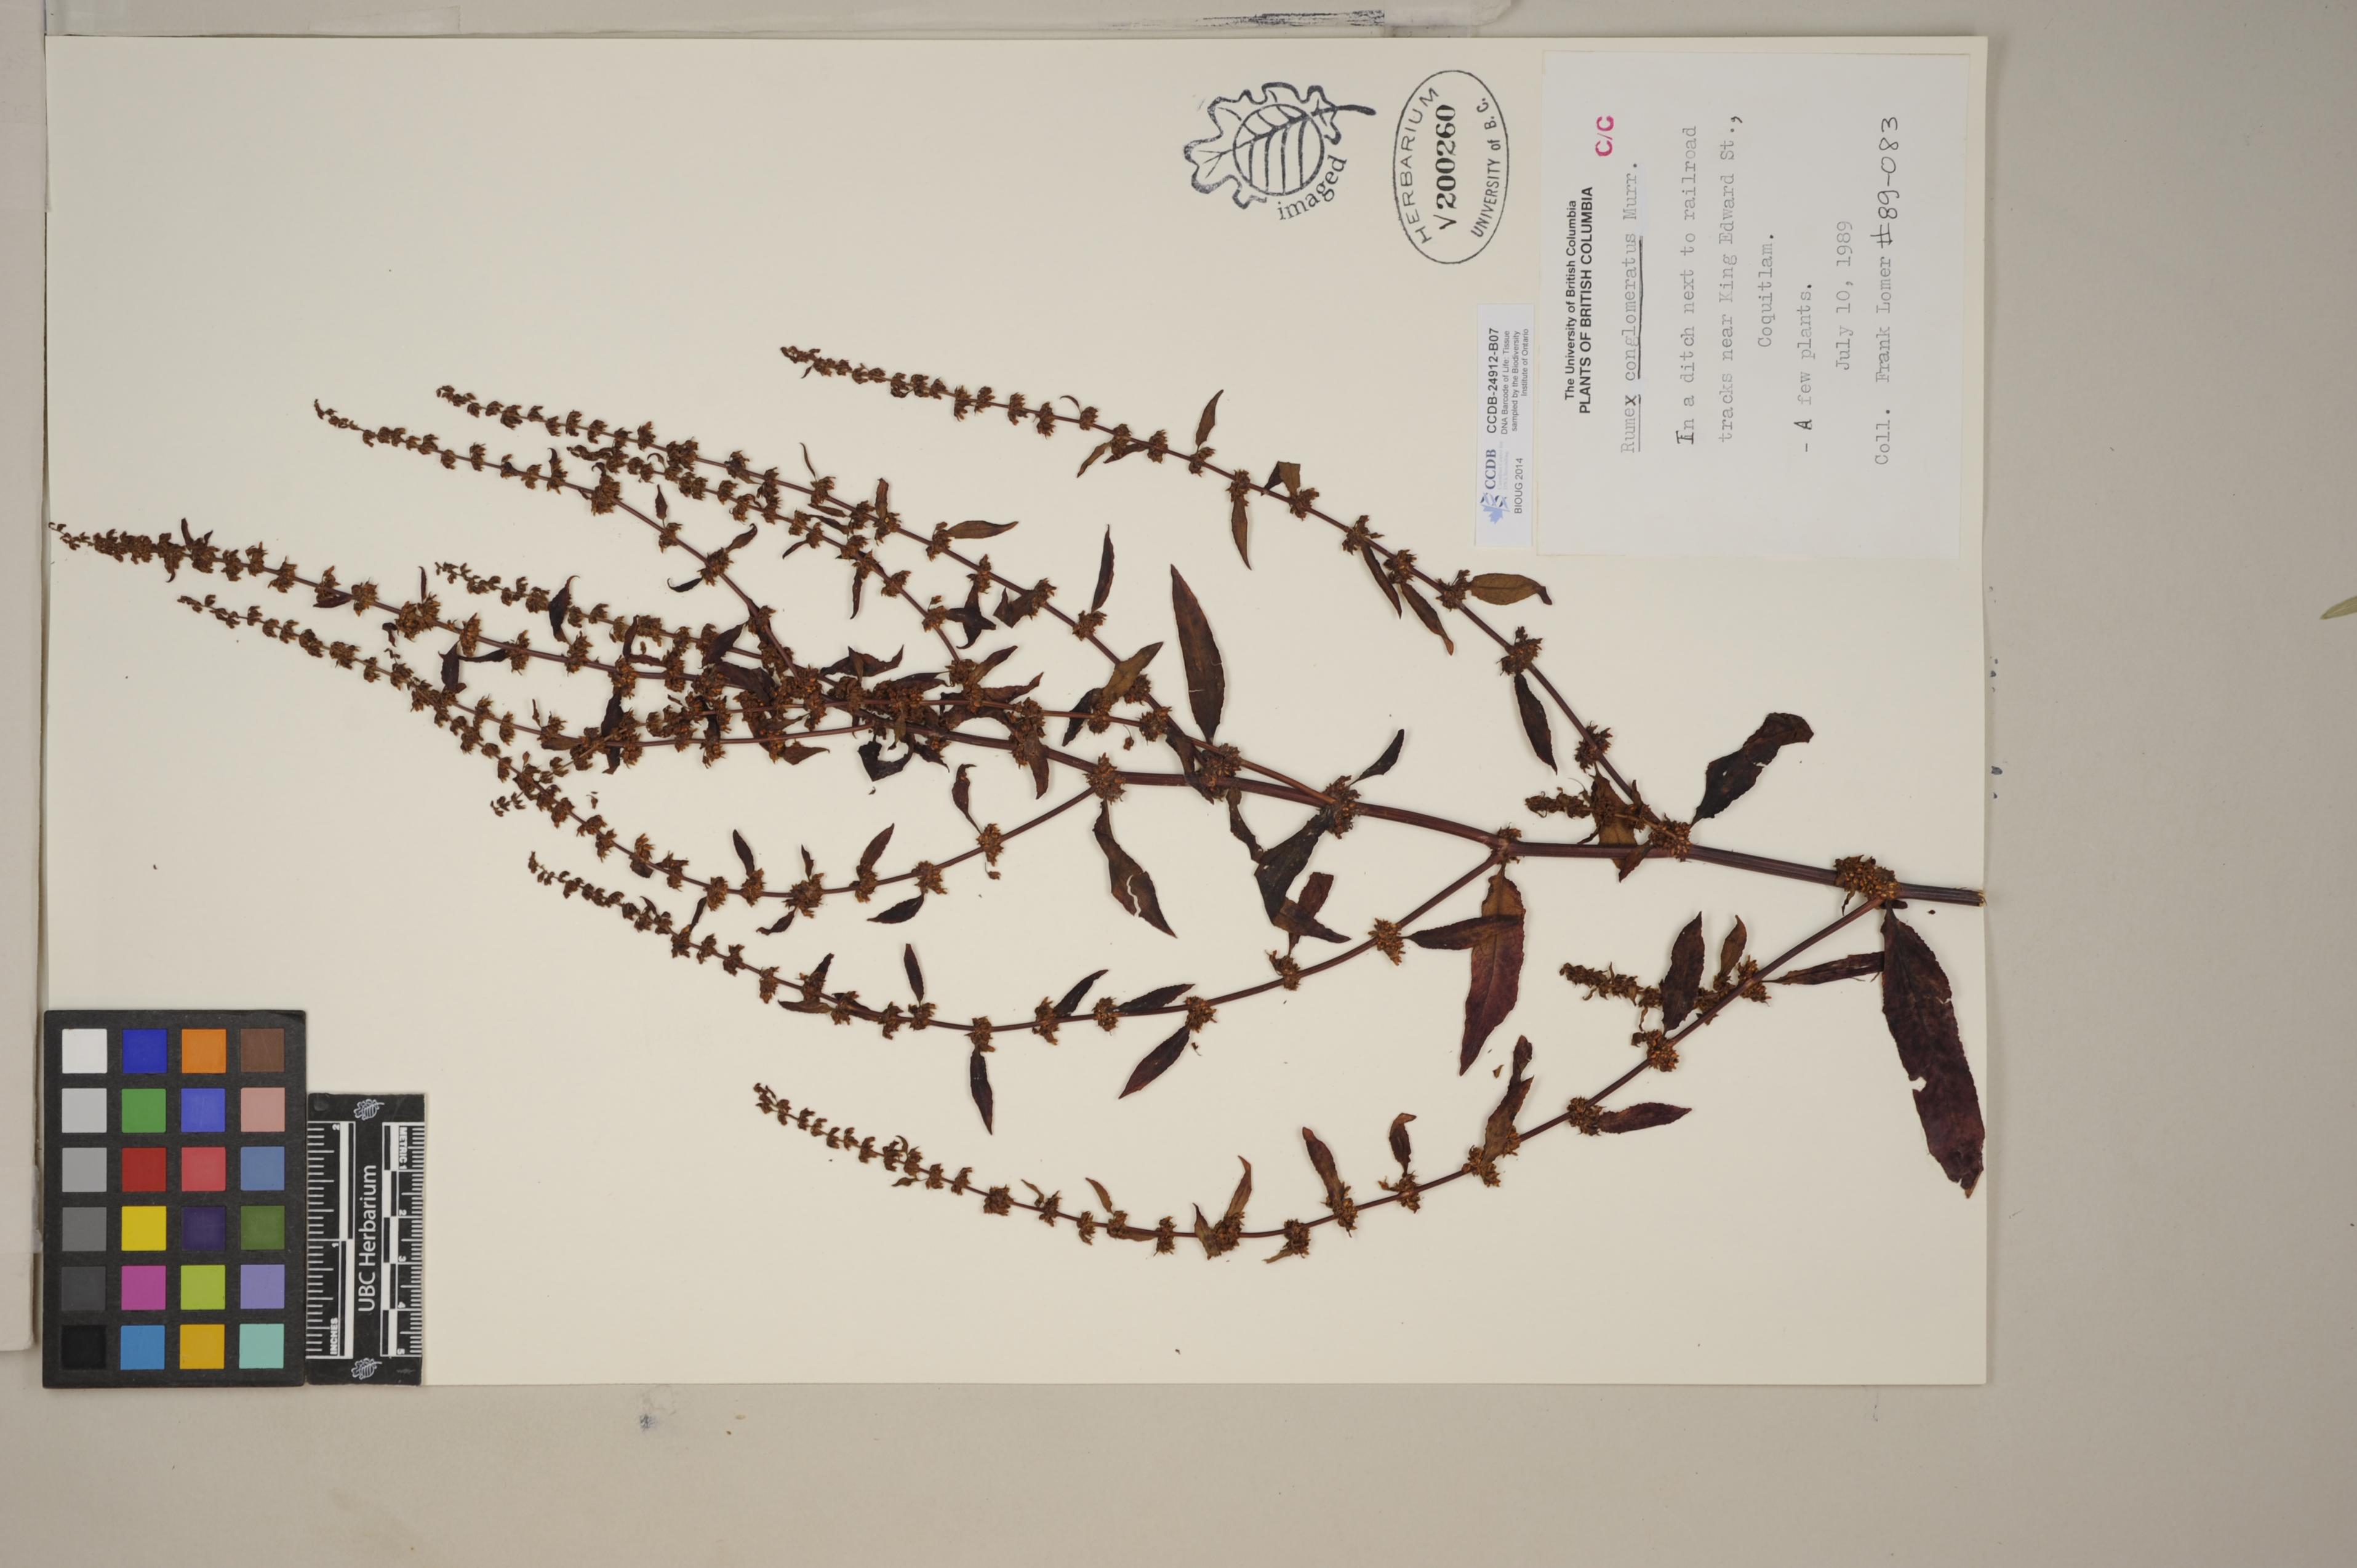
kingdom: Plantae
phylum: Tracheophyta
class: Magnoliopsida
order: Caryophyllales
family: Polygonaceae
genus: Rumex
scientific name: Rumex conglomeratus
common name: Clustered dock
